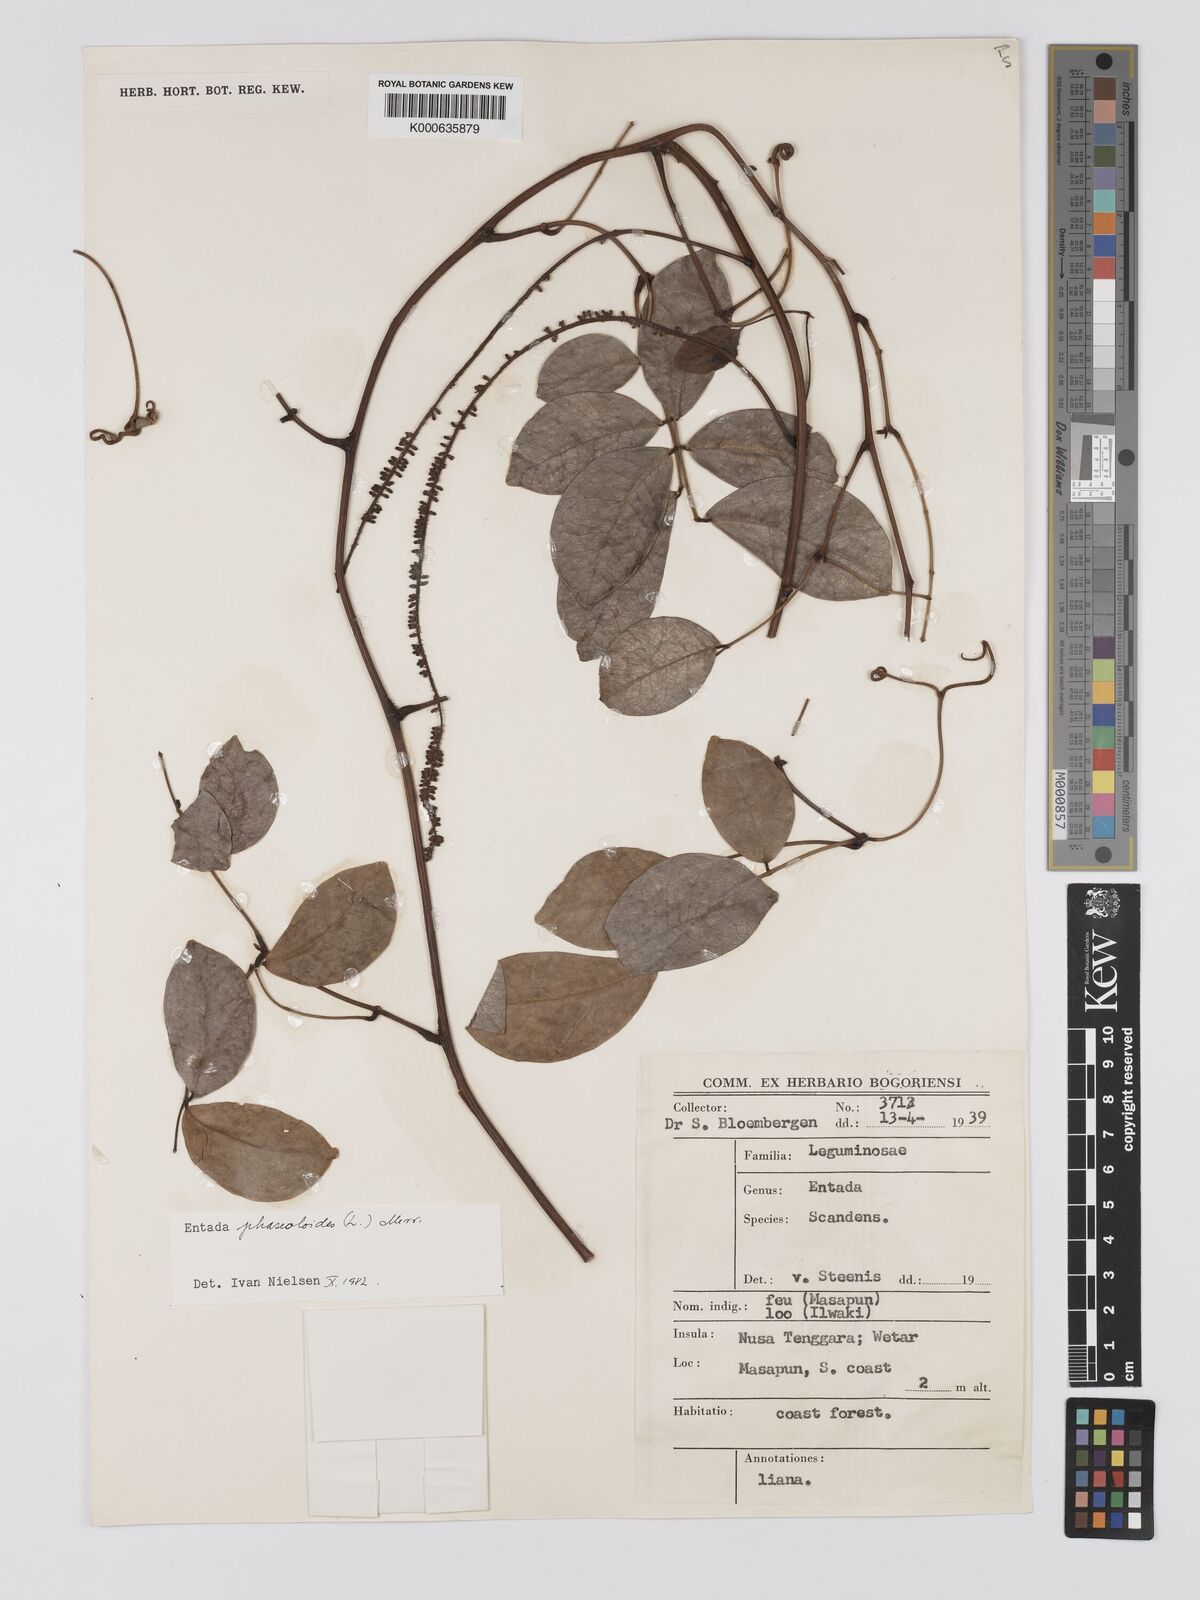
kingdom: Plantae
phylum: Tracheophyta
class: Magnoliopsida
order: Fabales
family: Fabaceae
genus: Entada
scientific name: Entada phaseoloides
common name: Matchbox-bean
